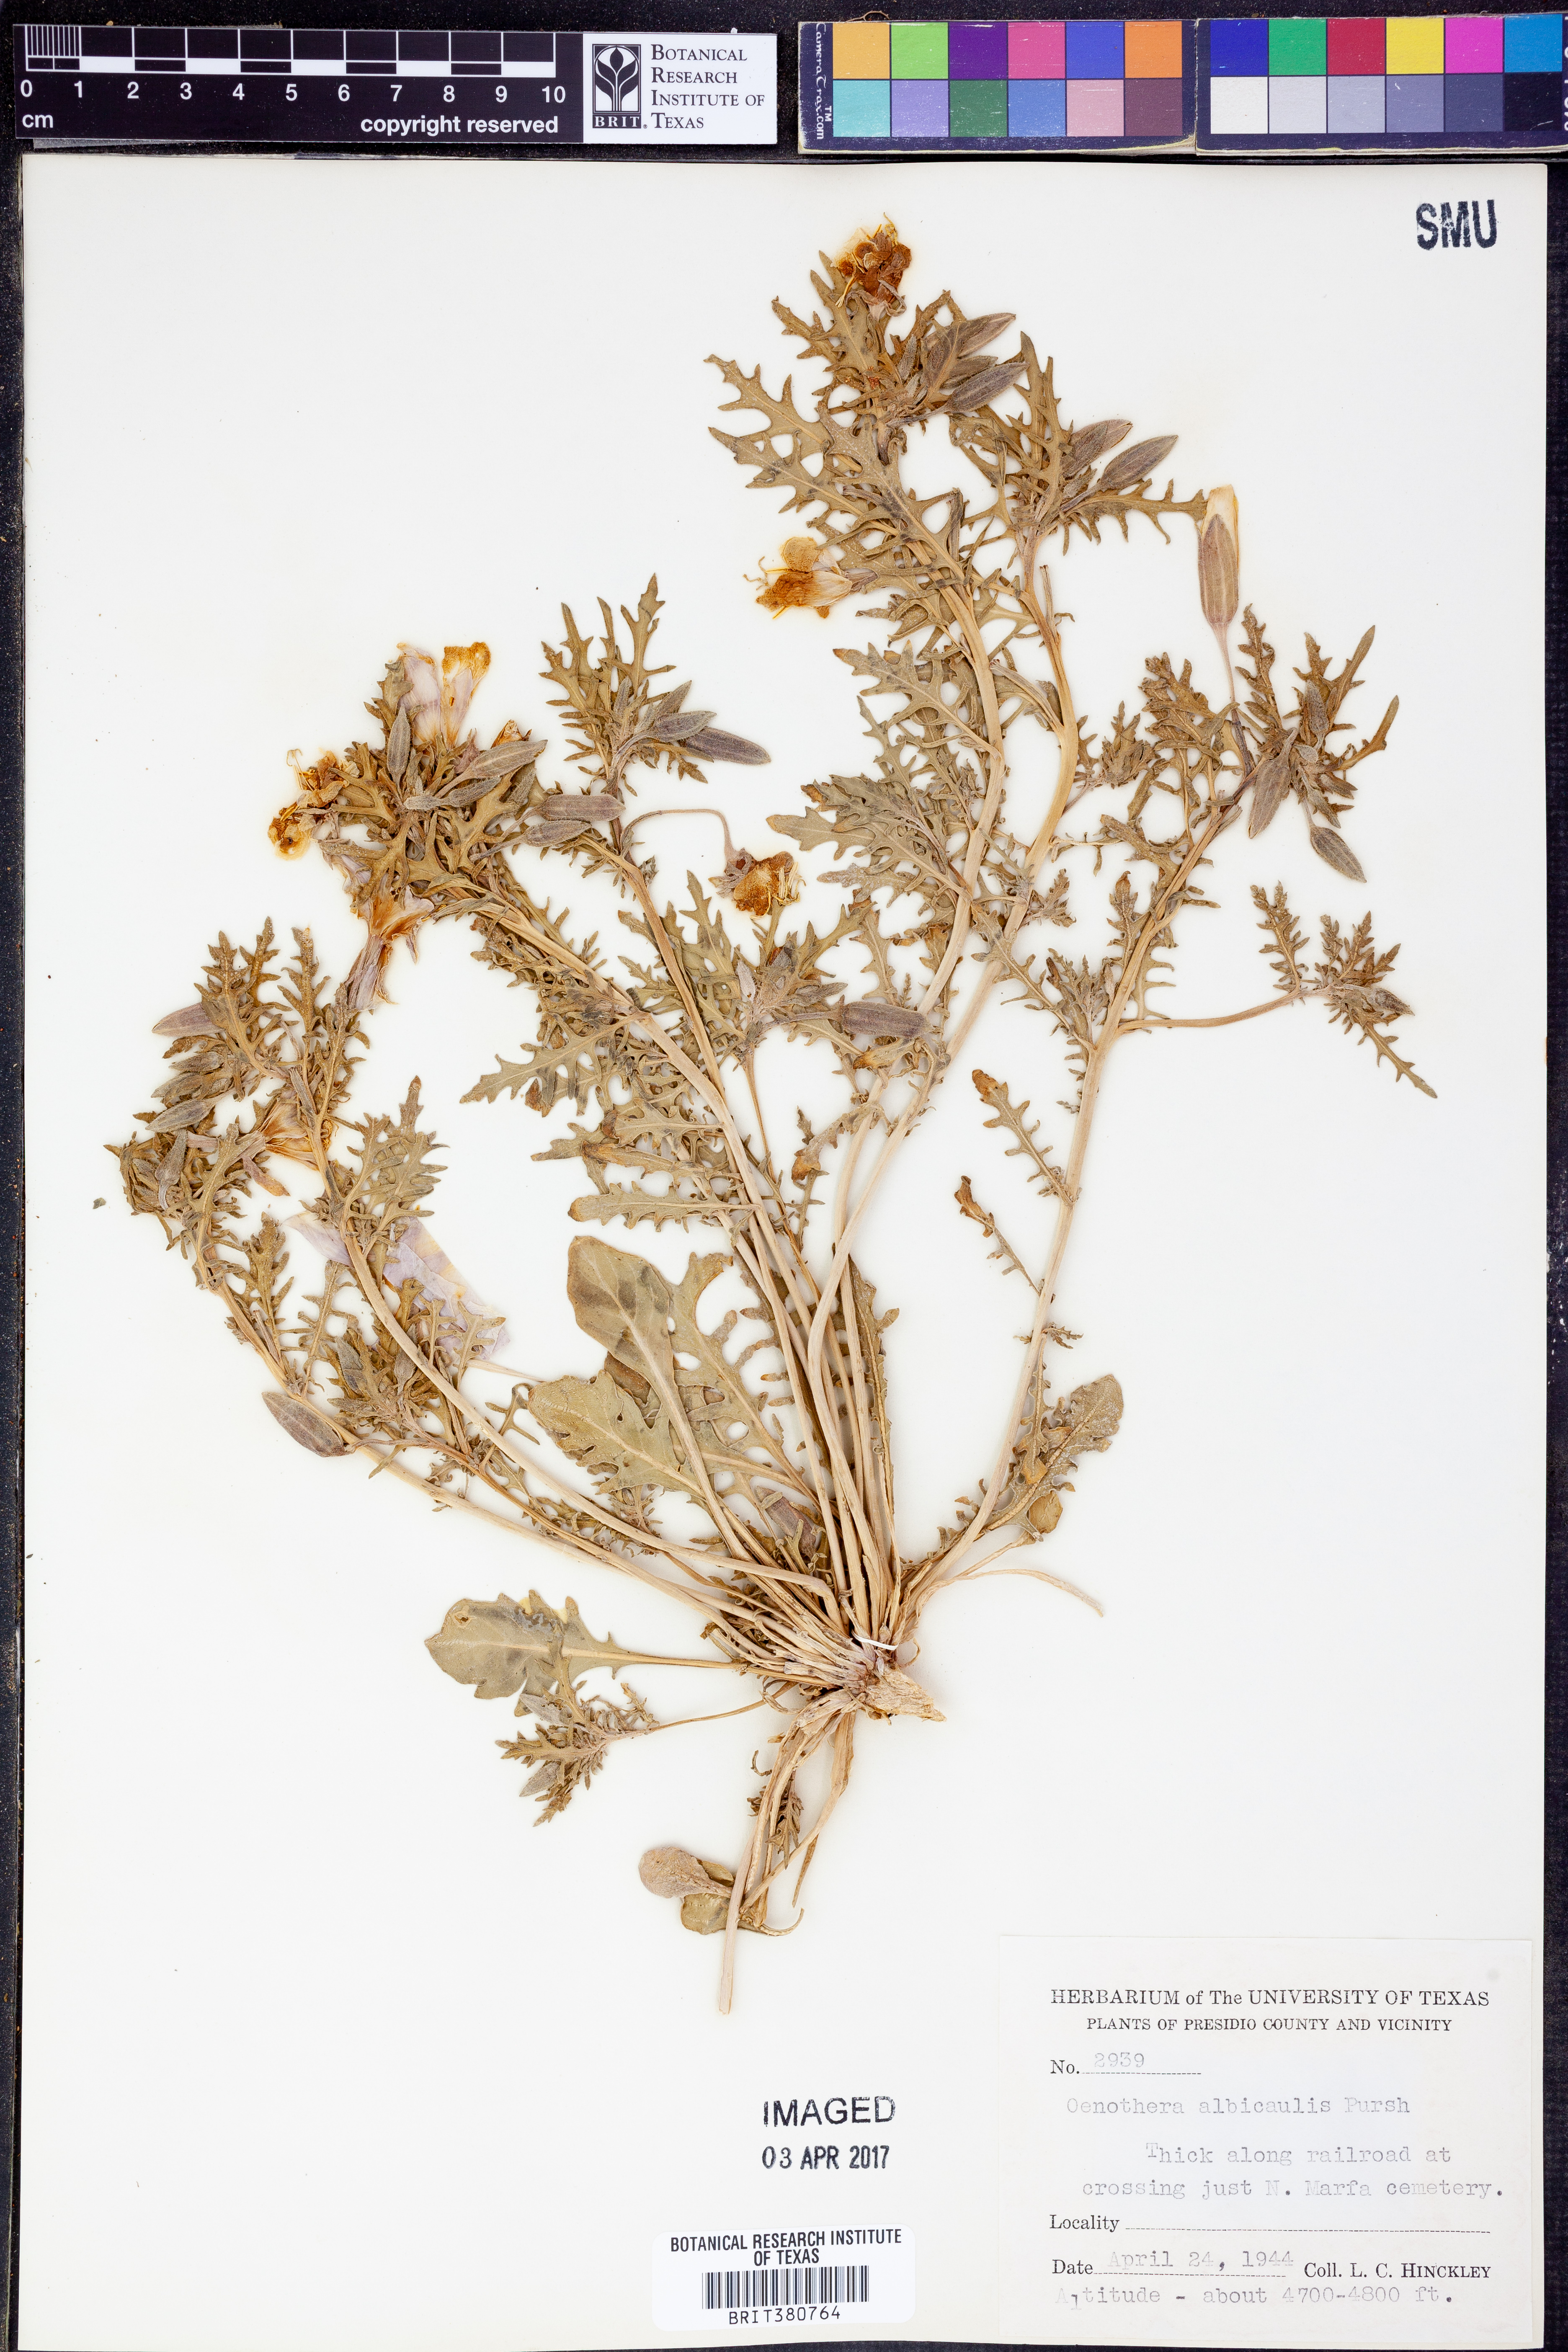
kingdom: Plantae
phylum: Tracheophyta
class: Magnoliopsida
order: Myrtales
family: Onagraceae
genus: Oenothera
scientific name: Oenothera albicaulis
